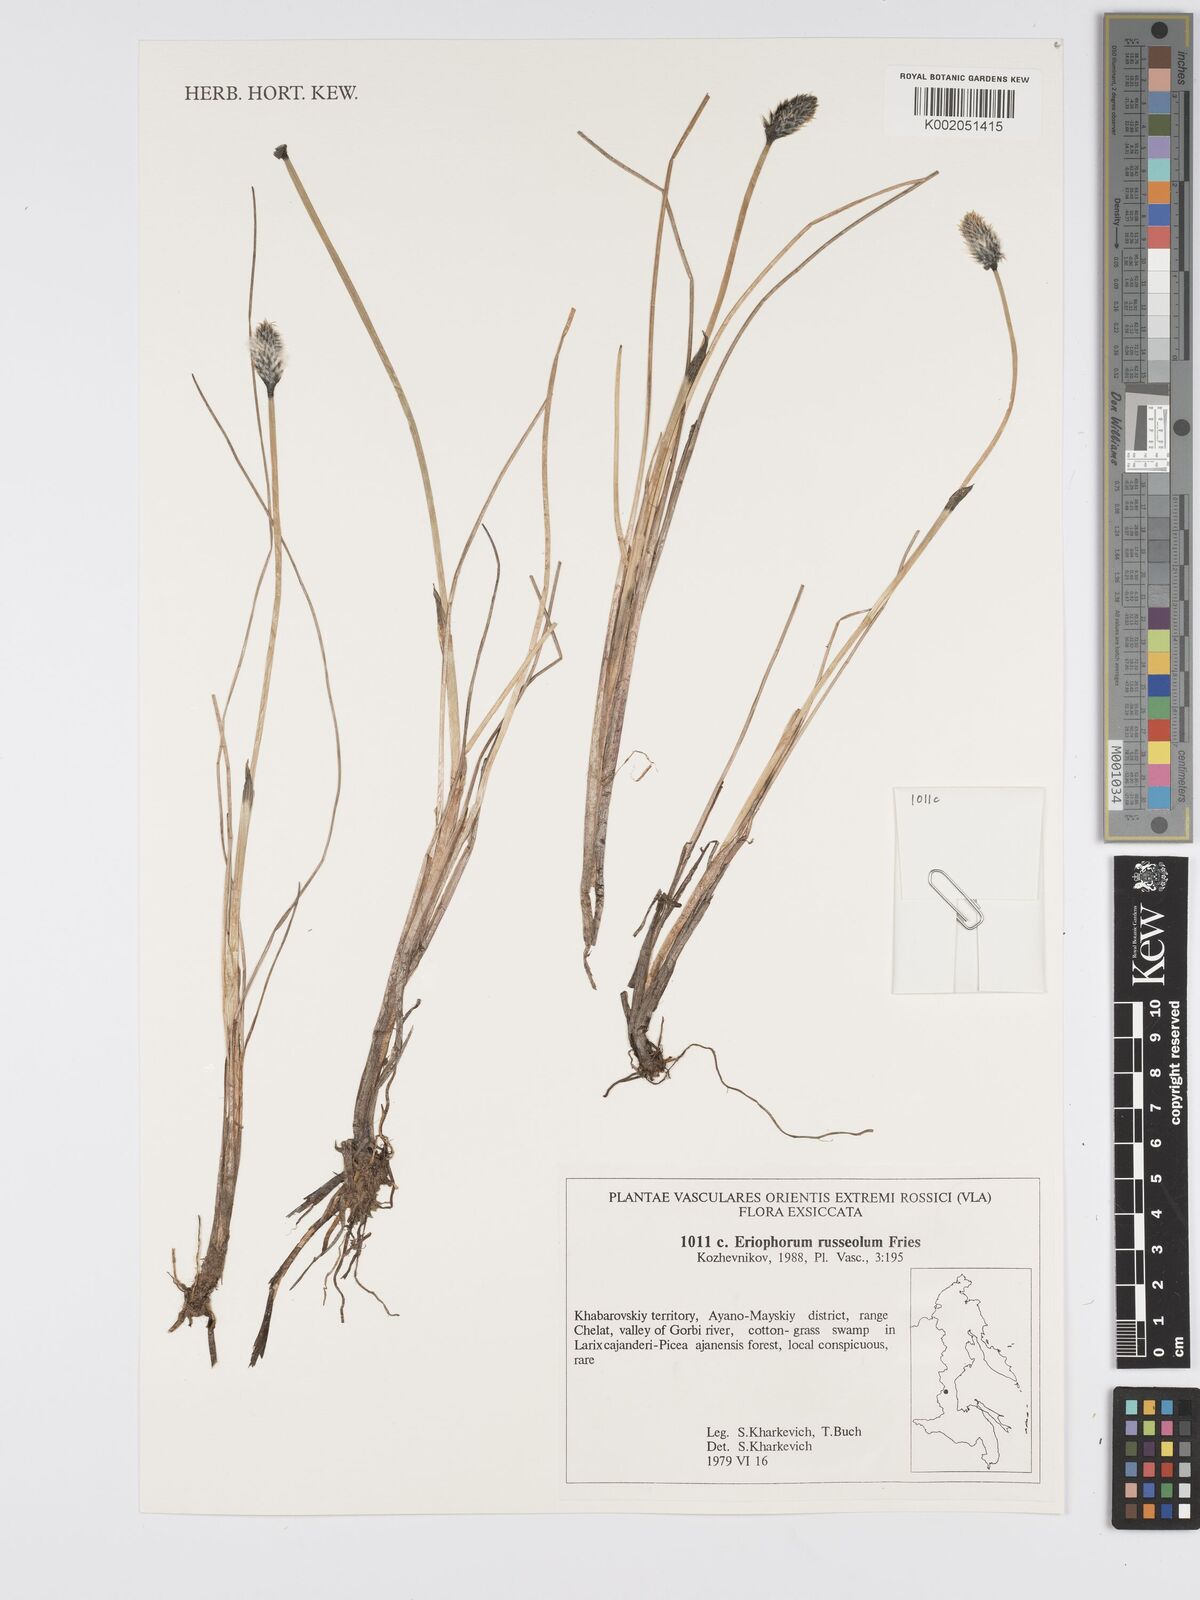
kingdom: Plantae
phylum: Tracheophyta
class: Liliopsida
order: Poales
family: Cyperaceae
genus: Eriophorum
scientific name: Eriophorum scheuchzeri
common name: Scheuchzer's cottongrass
